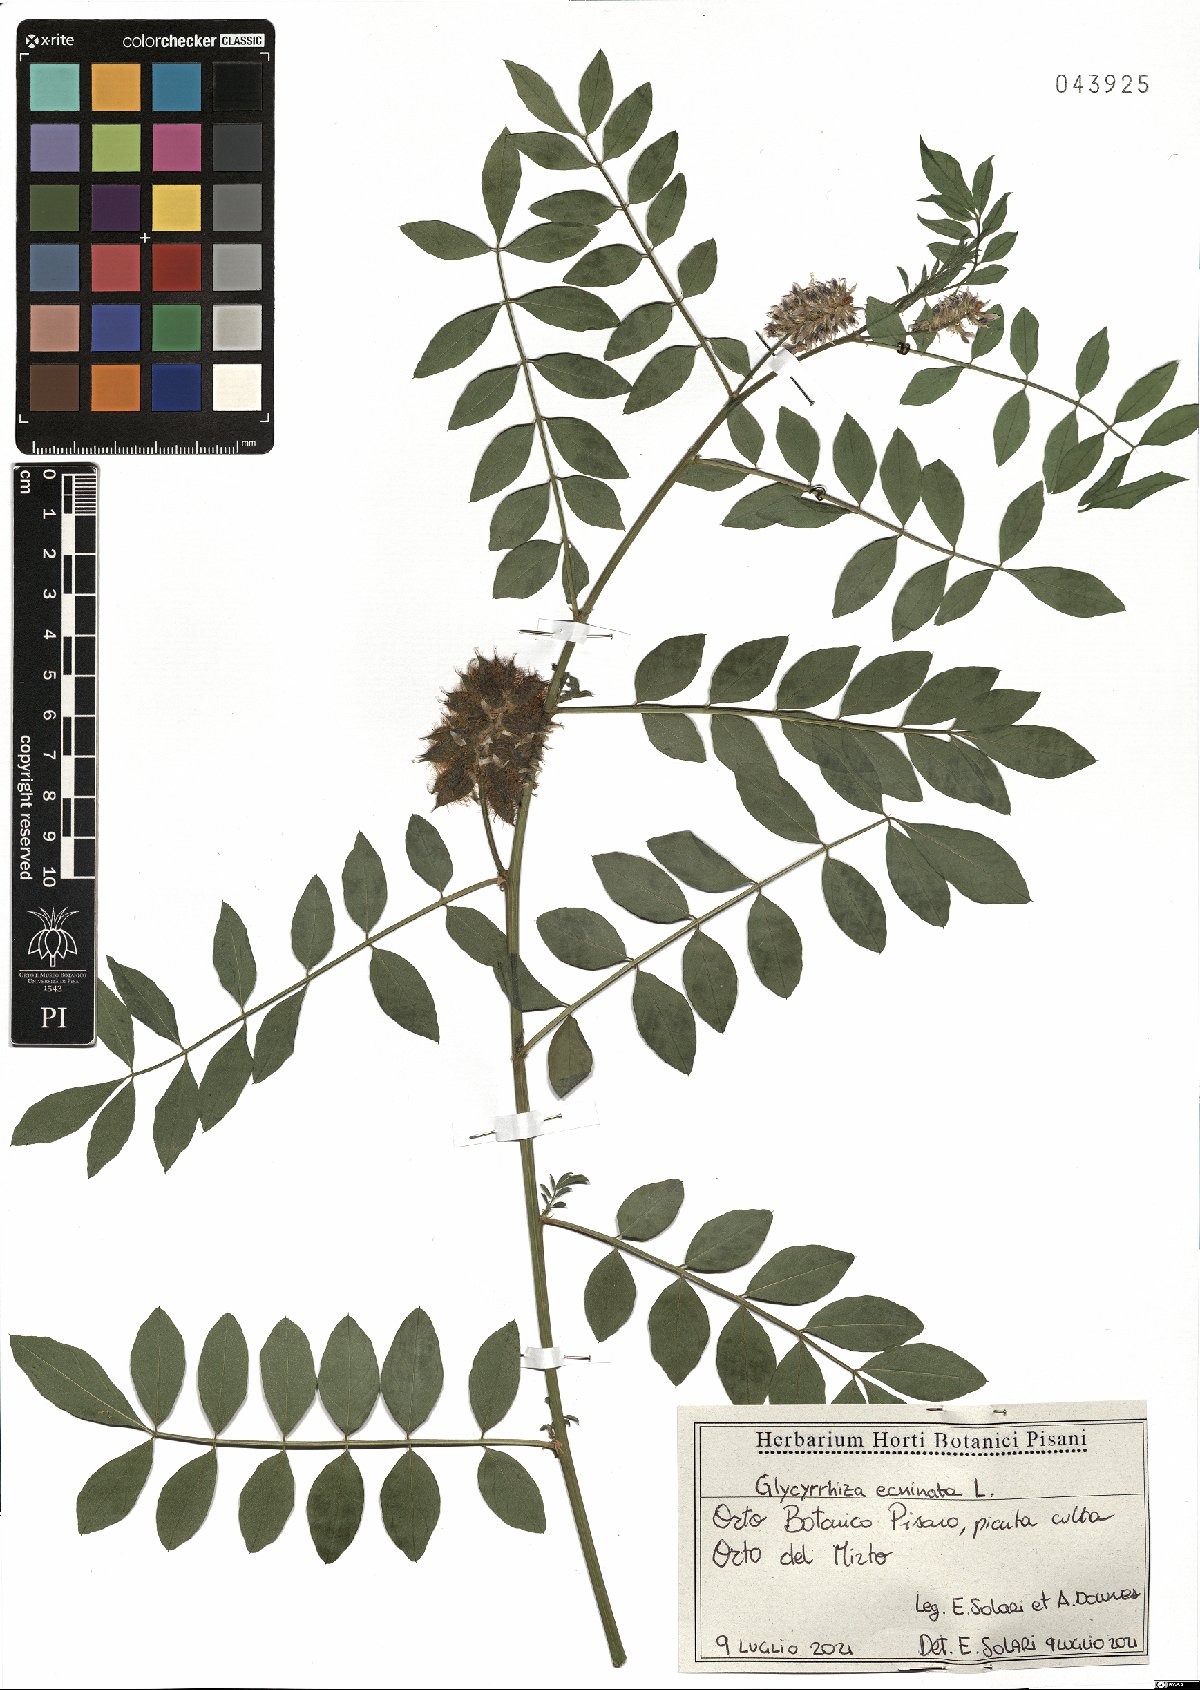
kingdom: Plantae
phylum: Tracheophyta
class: Magnoliopsida
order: Fabales
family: Fabaceae
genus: Glycyrrhiza
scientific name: Glycyrrhiza echinata
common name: German liquorice
